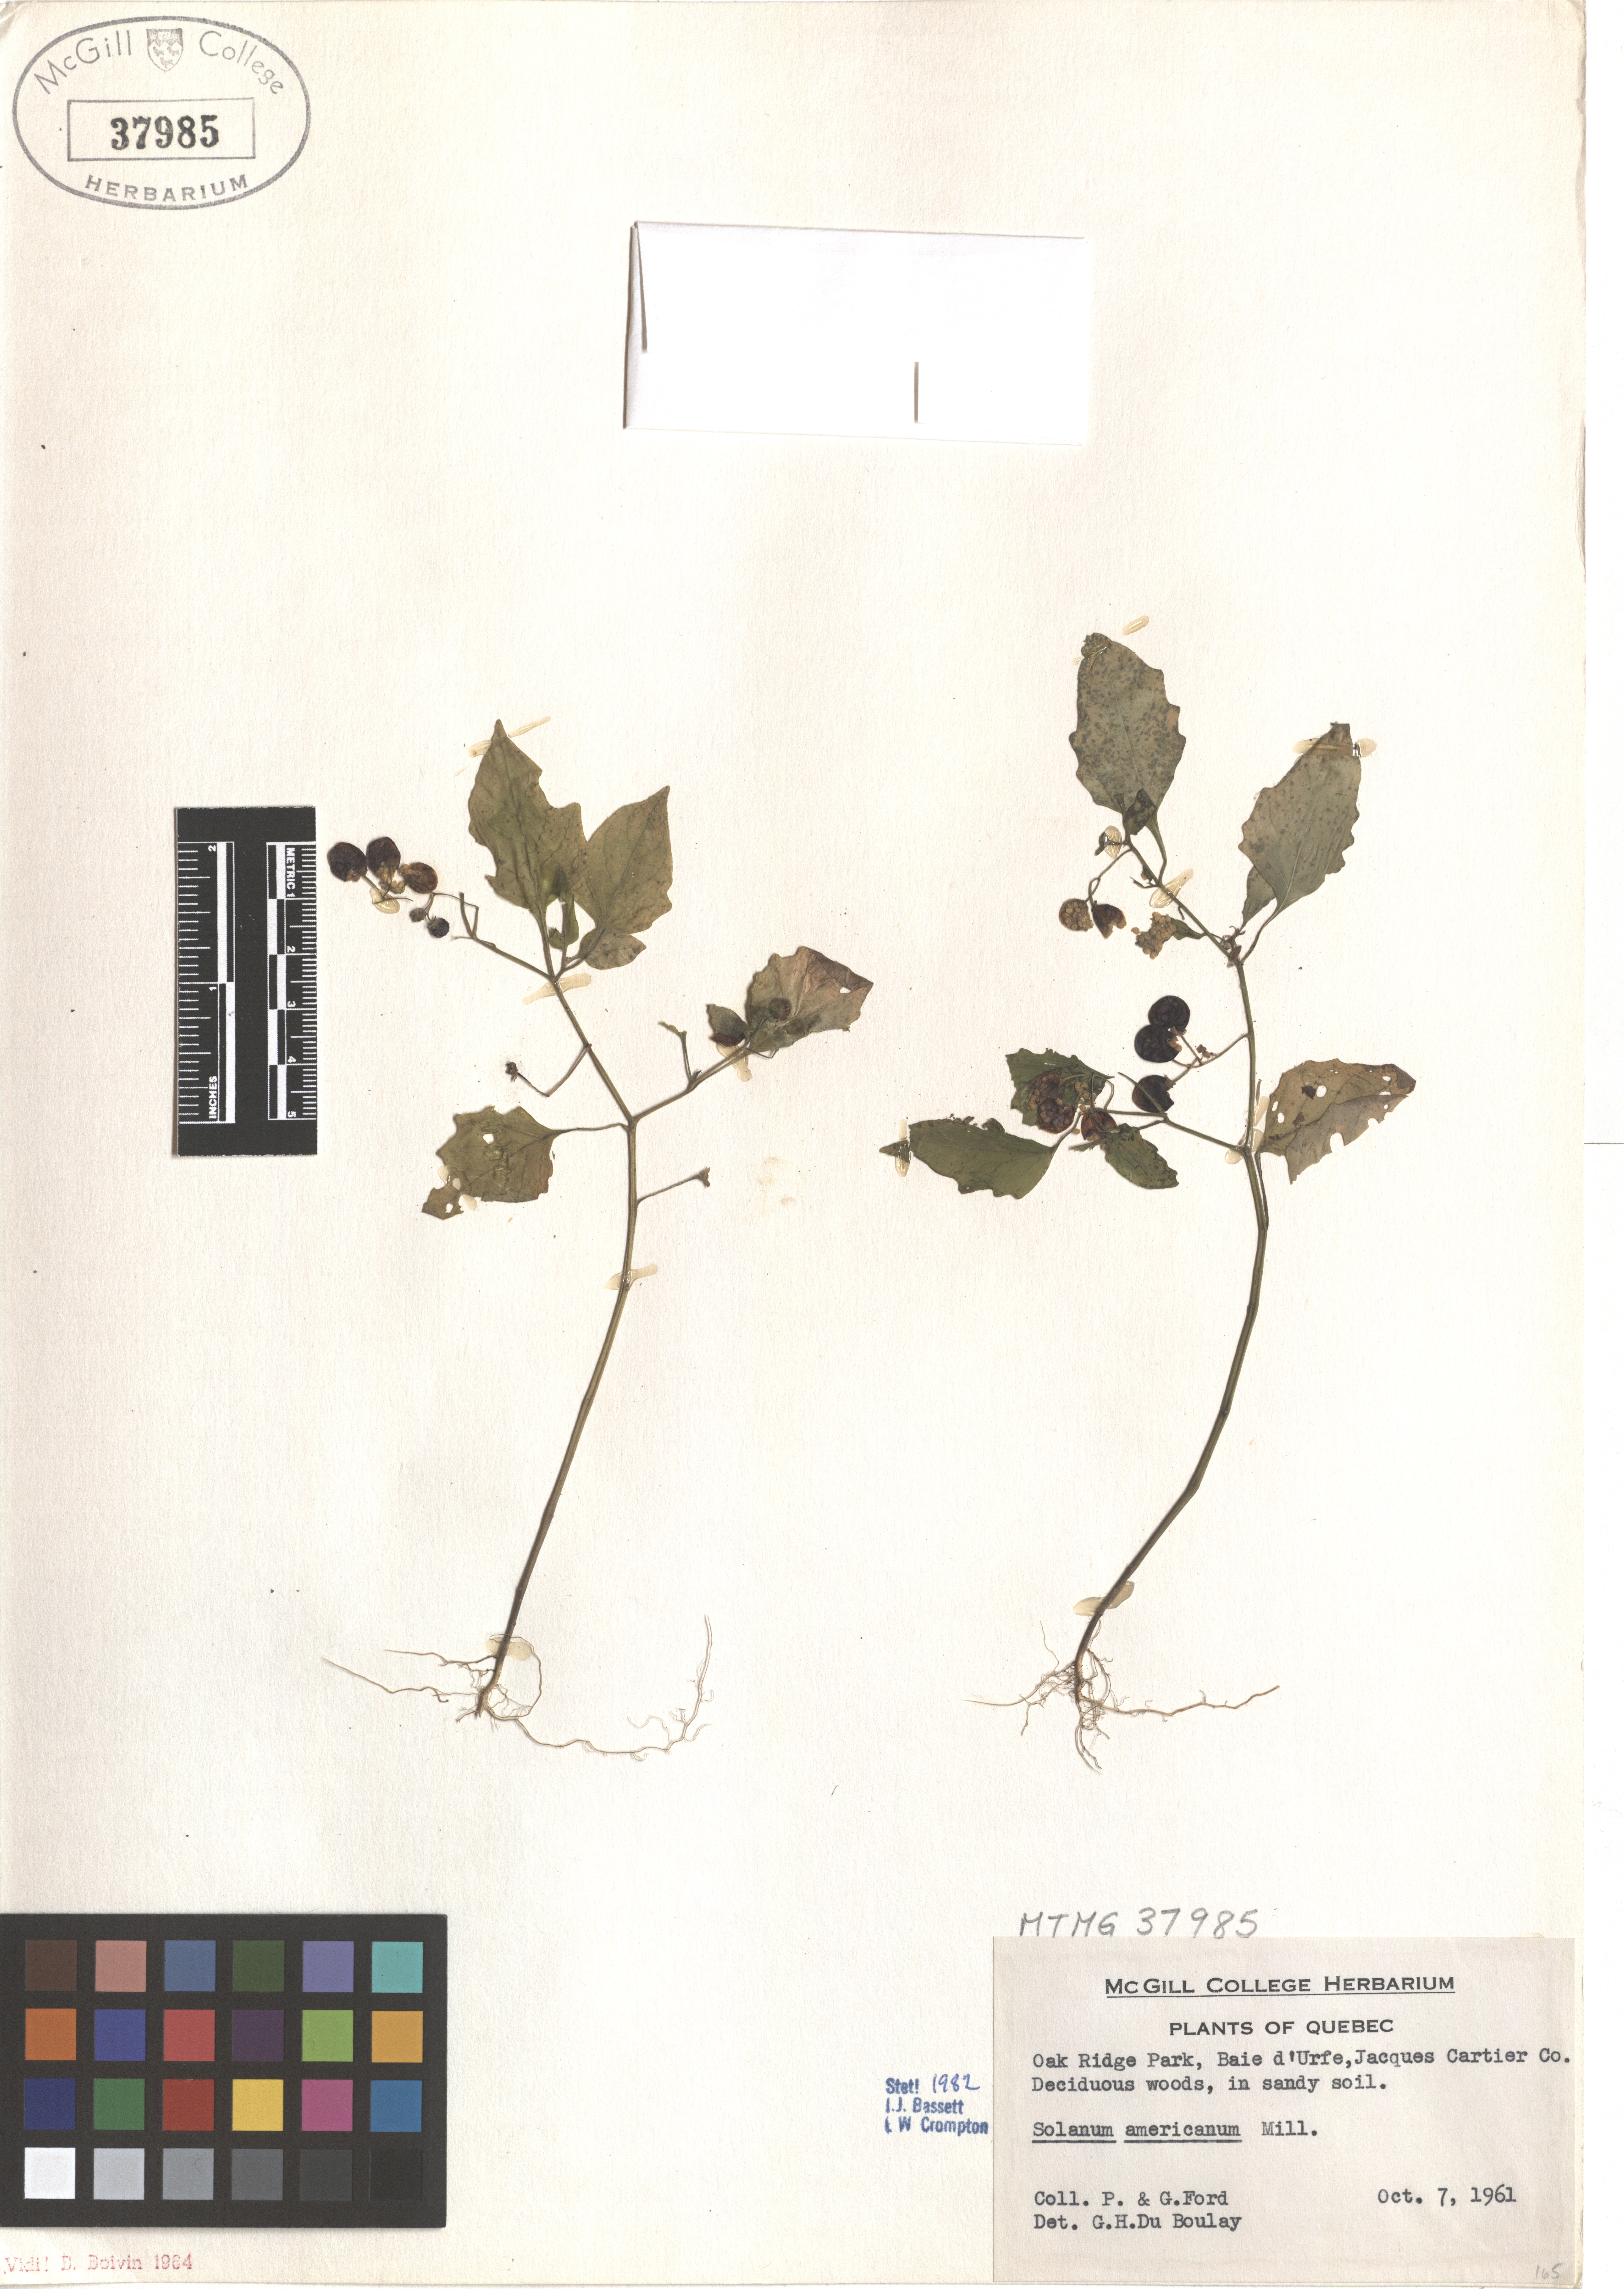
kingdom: Plantae
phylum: Tracheophyta
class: Magnoliopsida
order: Solanales
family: Solanaceae
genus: Solanum
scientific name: Solanum americanum
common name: American black nightshade
